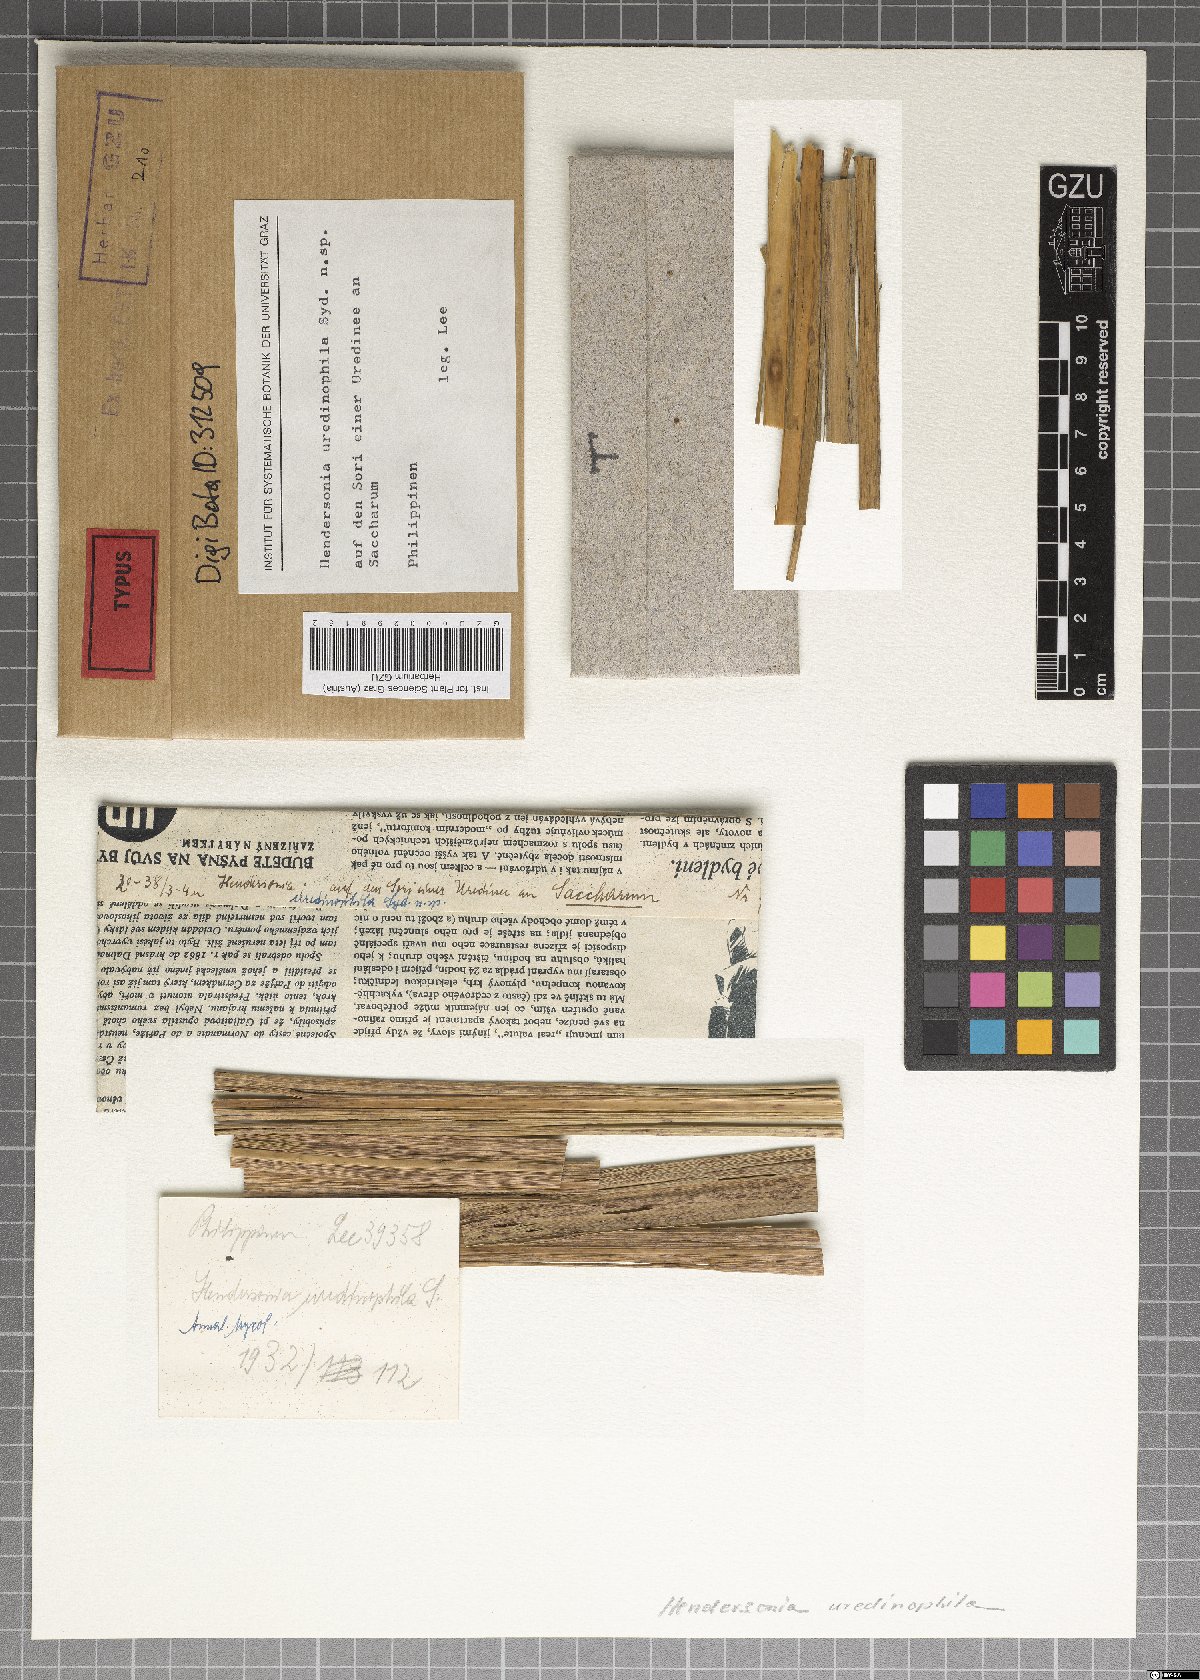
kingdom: Fungi
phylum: Ascomycota
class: Dothideomycetes
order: Pleosporales
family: Phaeosphaeriaceae
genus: Hendersonia
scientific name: Hendersonia uredinophila
